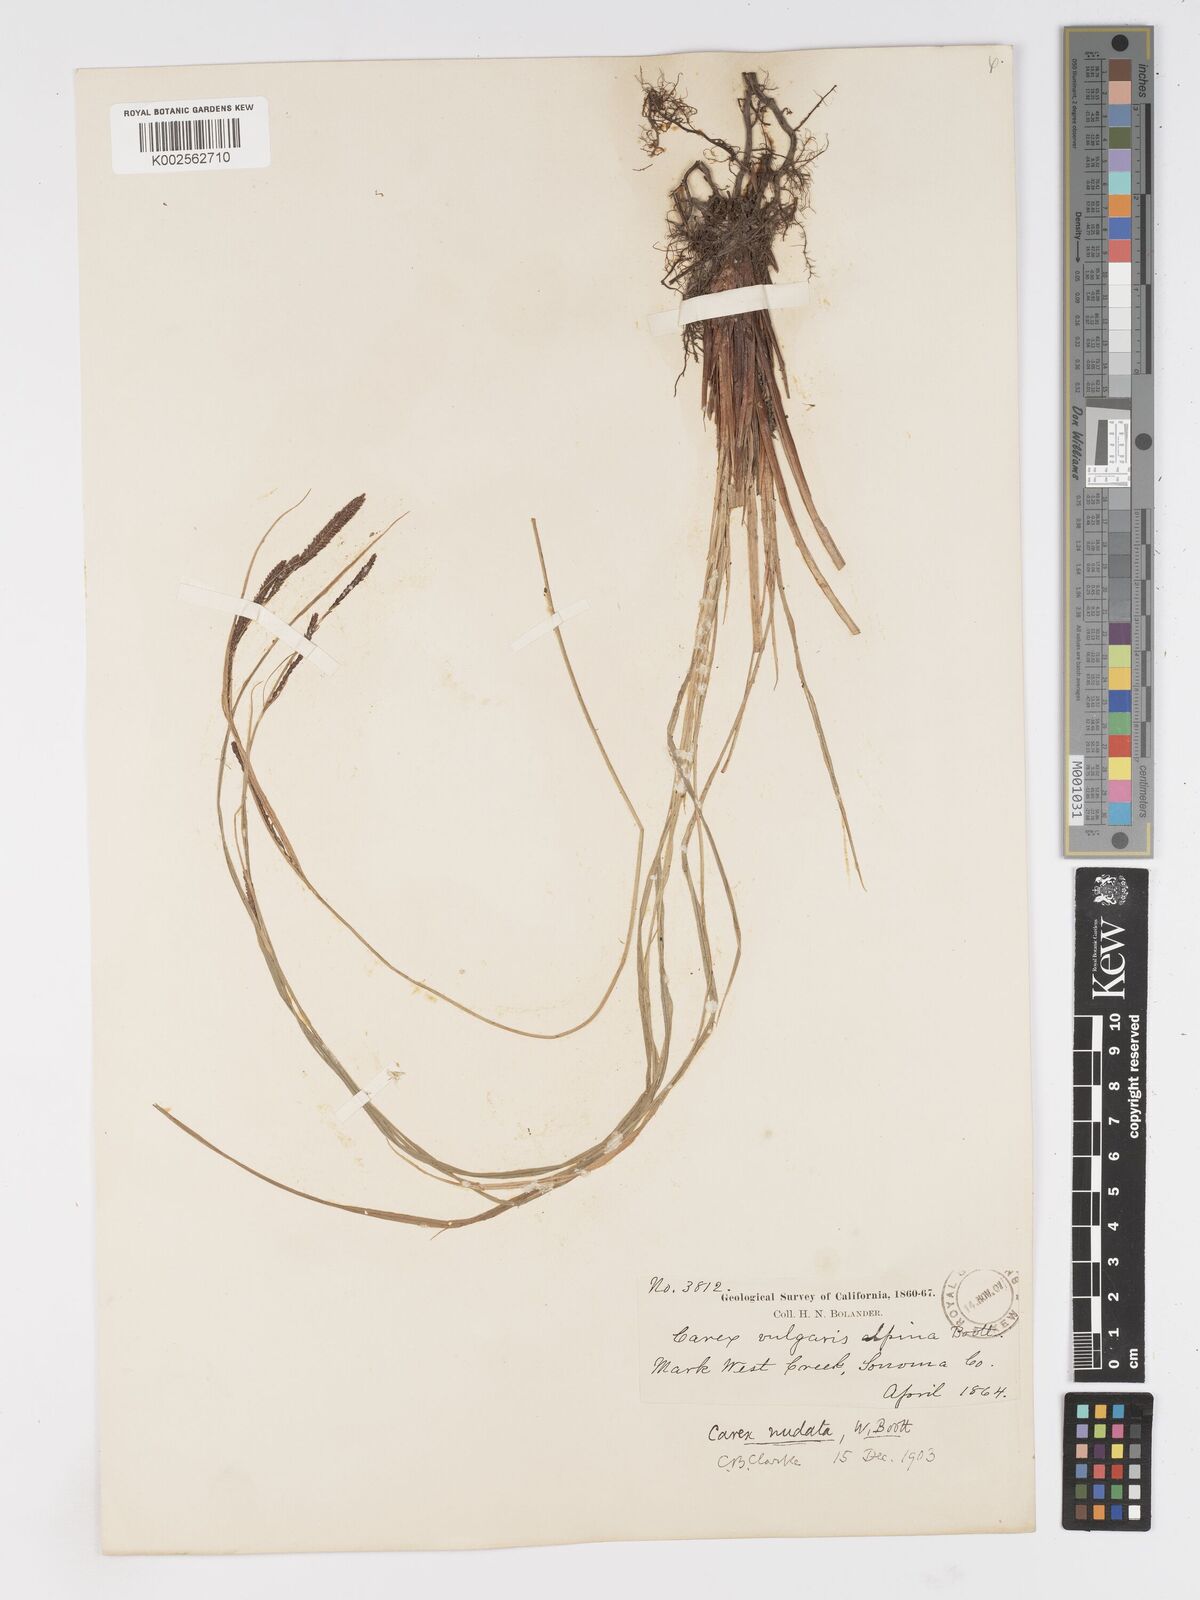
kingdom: Plantae
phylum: Tracheophyta
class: Liliopsida
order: Poales
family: Cyperaceae
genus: Carex
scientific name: Carex nudata
